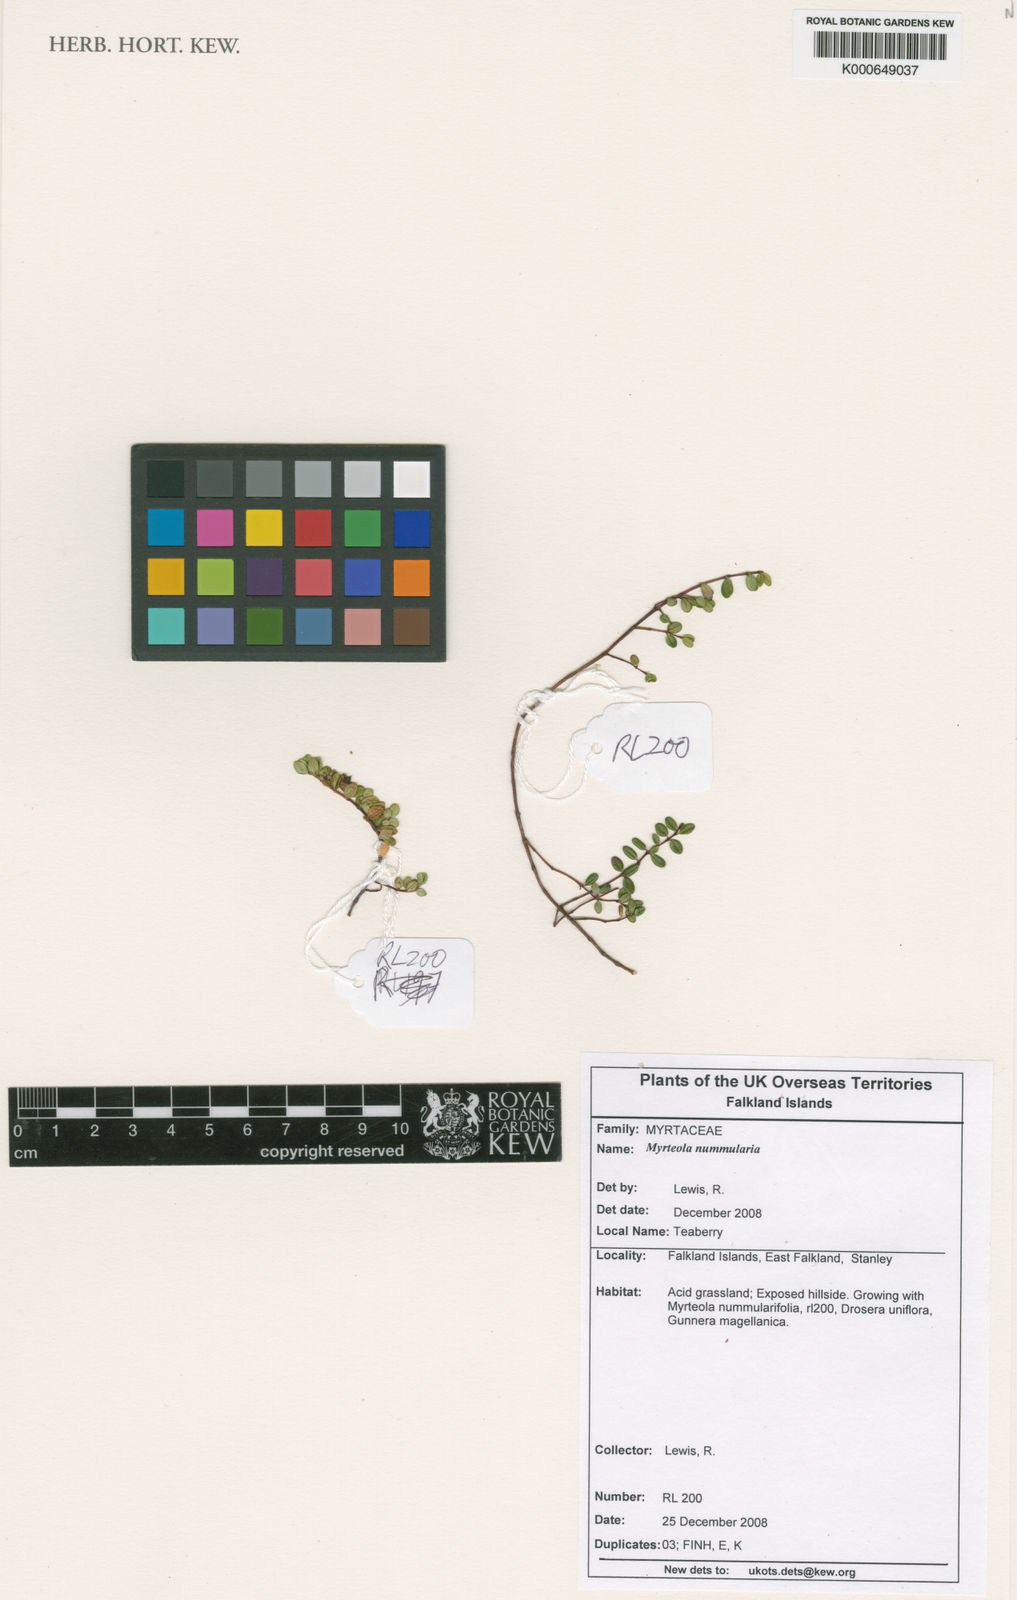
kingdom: Plantae
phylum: Tracheophyta
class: Magnoliopsida
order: Myrtales
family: Myrtaceae
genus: Myrteola
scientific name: Myrteola nummularia
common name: Cranberry-myrtle
